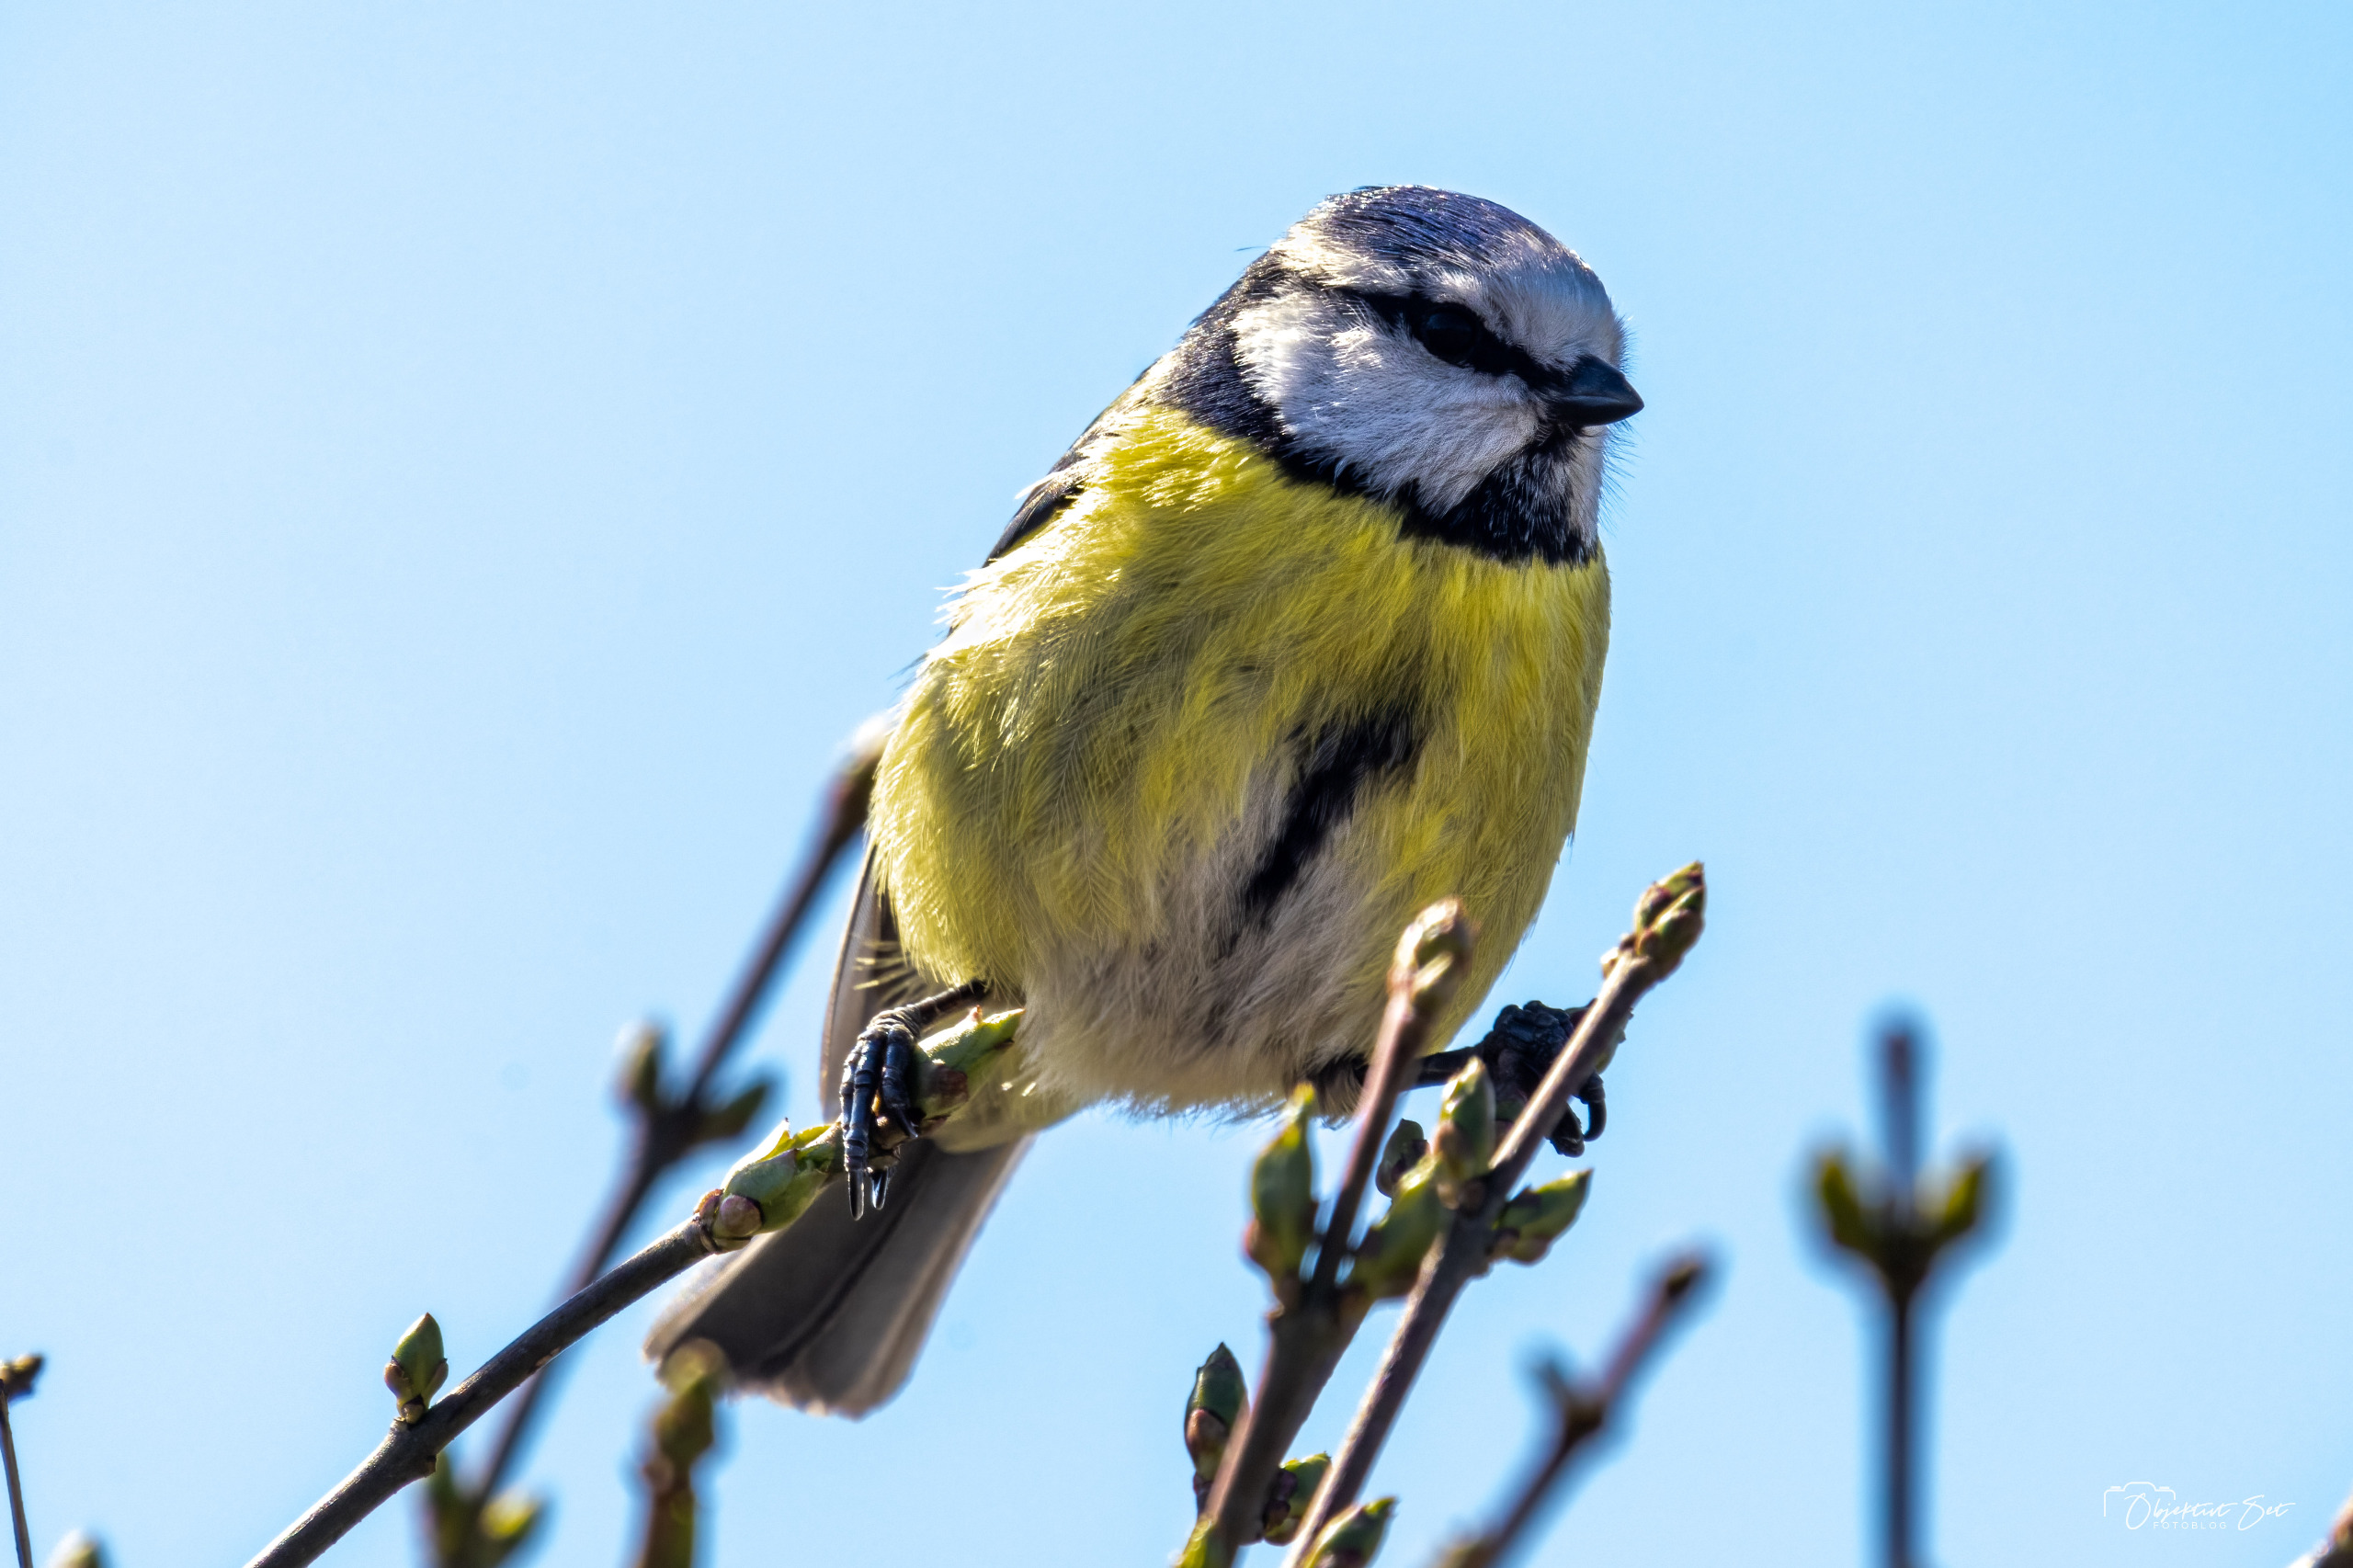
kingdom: Animalia
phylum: Chordata
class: Aves
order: Passeriformes
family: Paridae
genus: Cyanistes
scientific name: Cyanistes caeruleus
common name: Blåmejse
